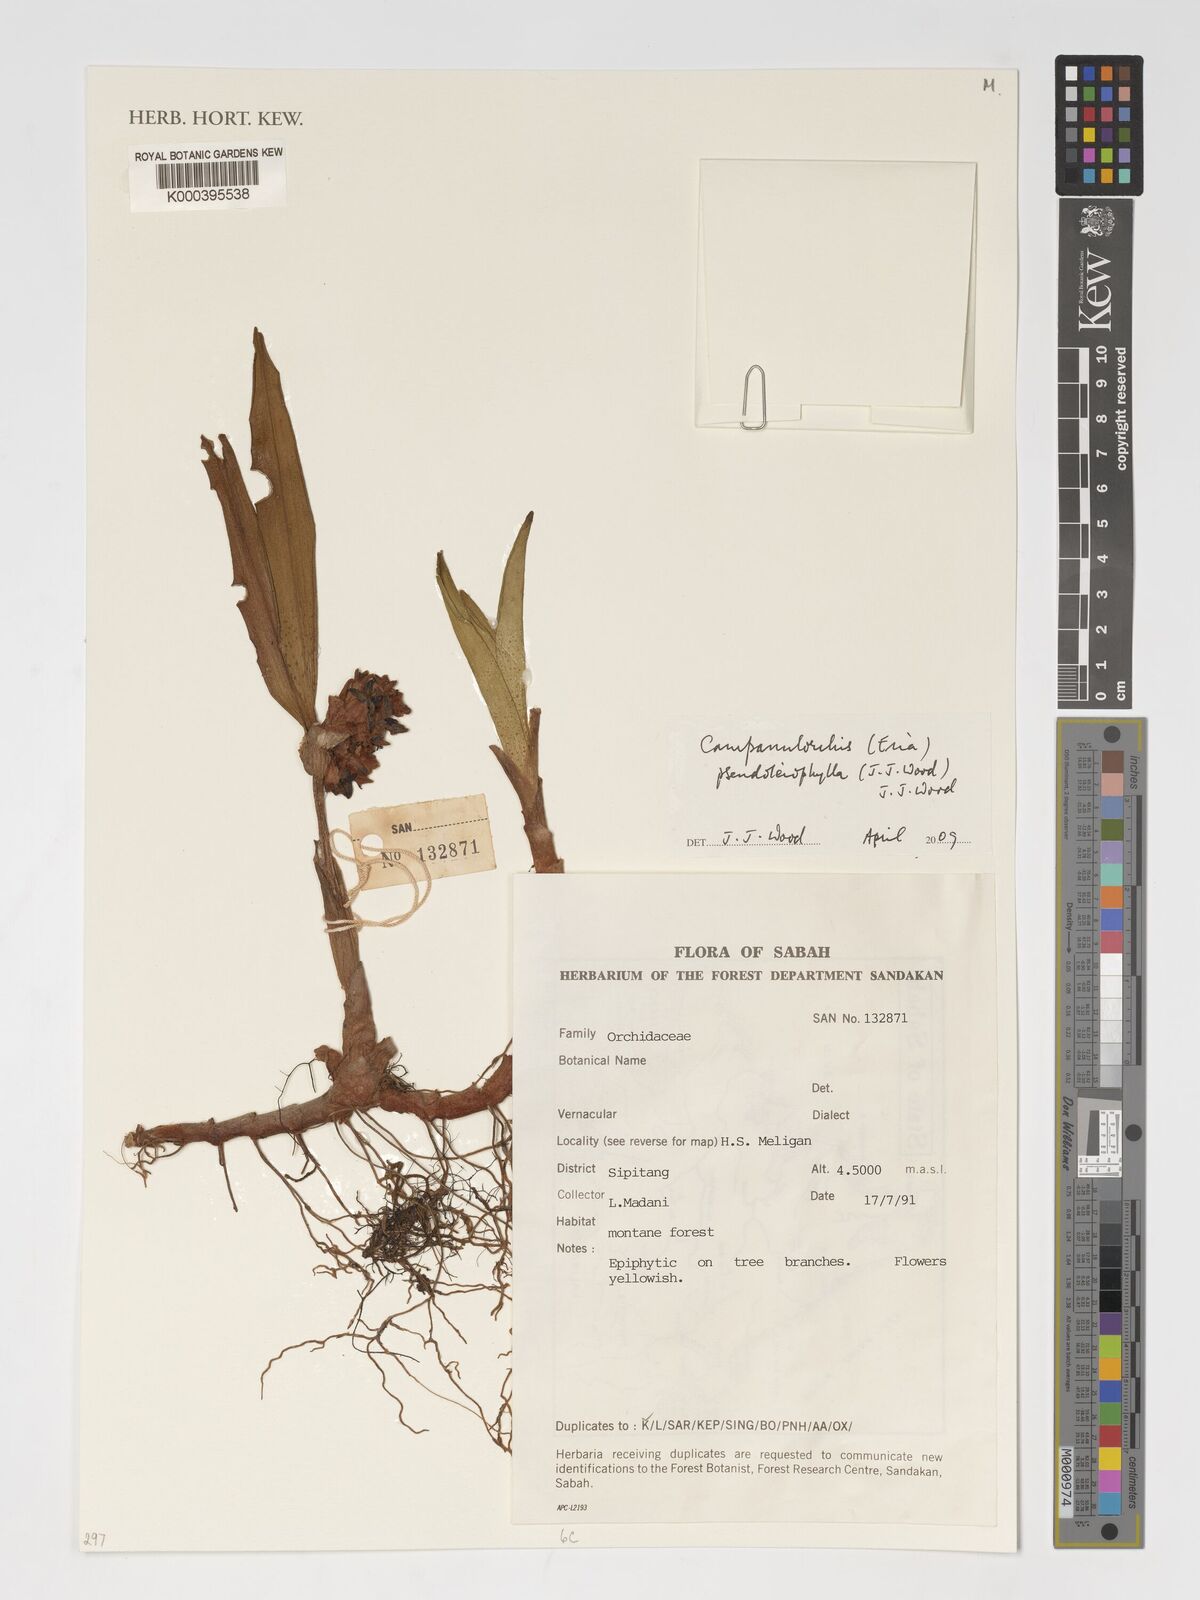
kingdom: Plantae
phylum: Tracheophyta
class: Liliopsida
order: Asparagales
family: Orchidaceae
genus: Strongyleria
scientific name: Strongyleria hirsutipetala
